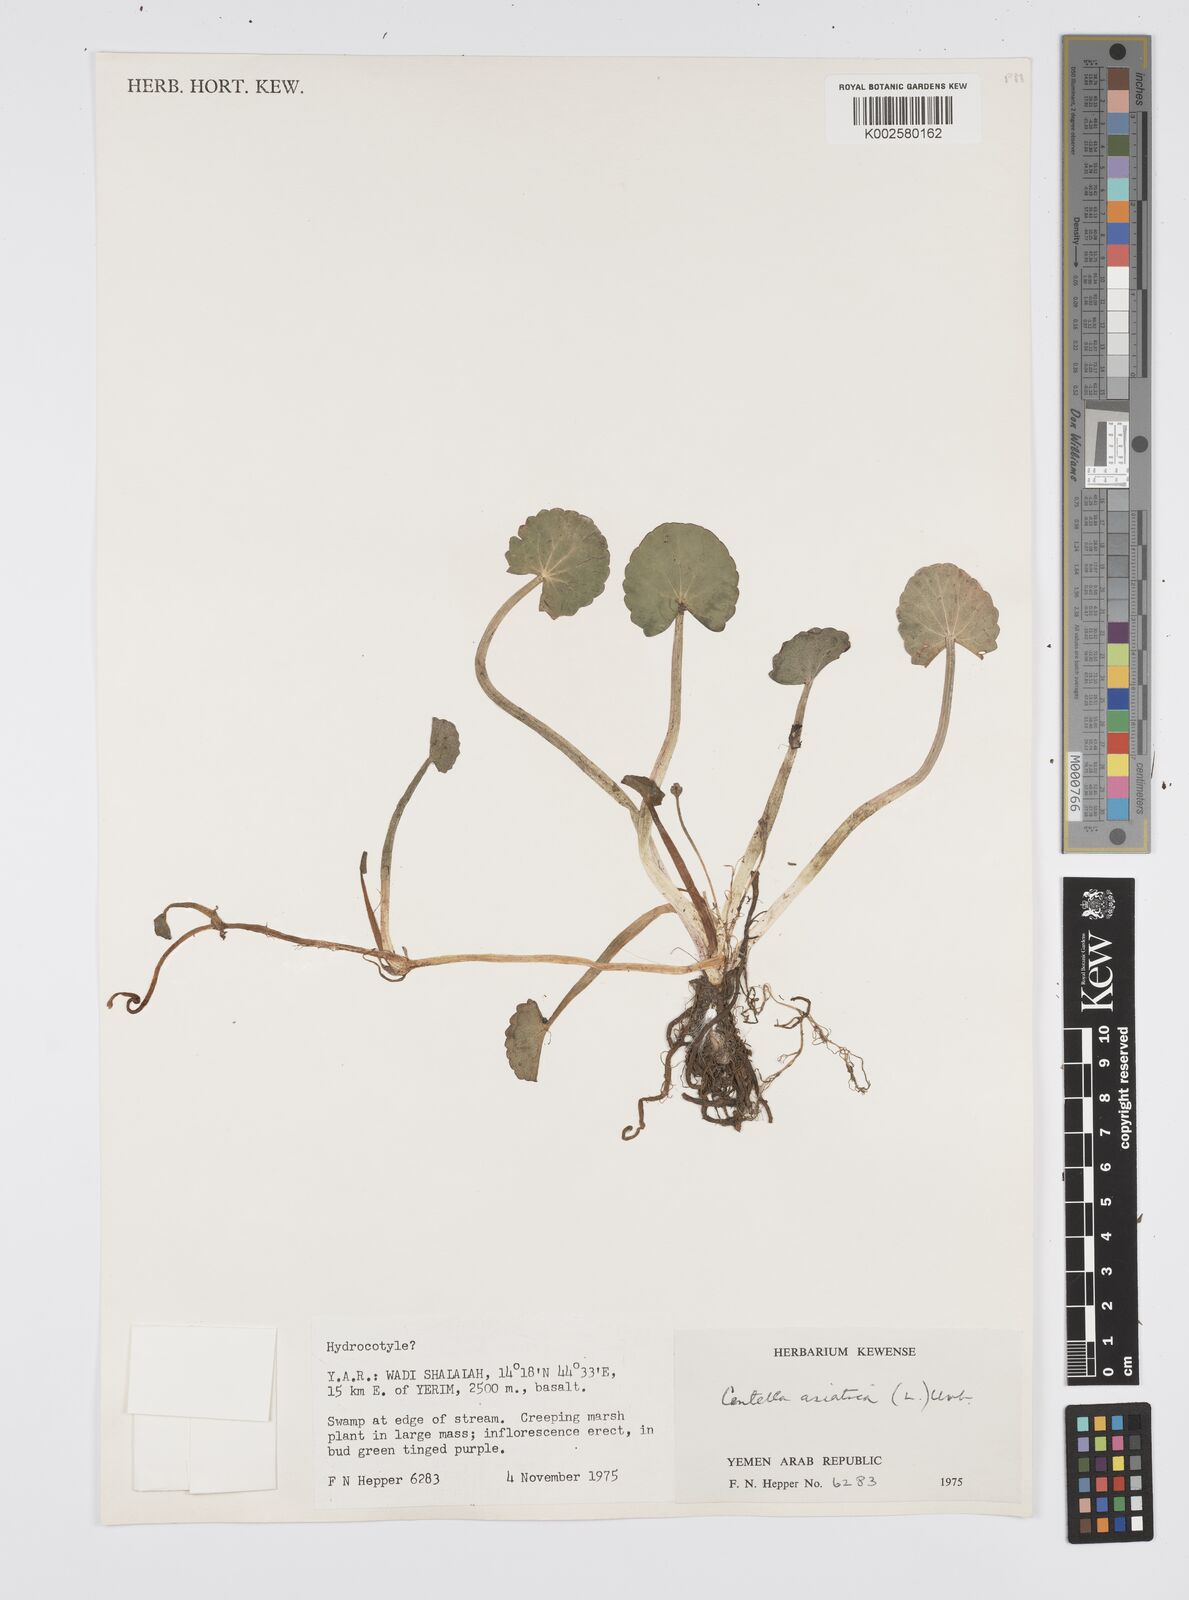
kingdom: Plantae
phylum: Tracheophyta
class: Magnoliopsida
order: Apiales
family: Apiaceae
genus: Centella
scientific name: Centella asiatica
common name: Spadeleaf
